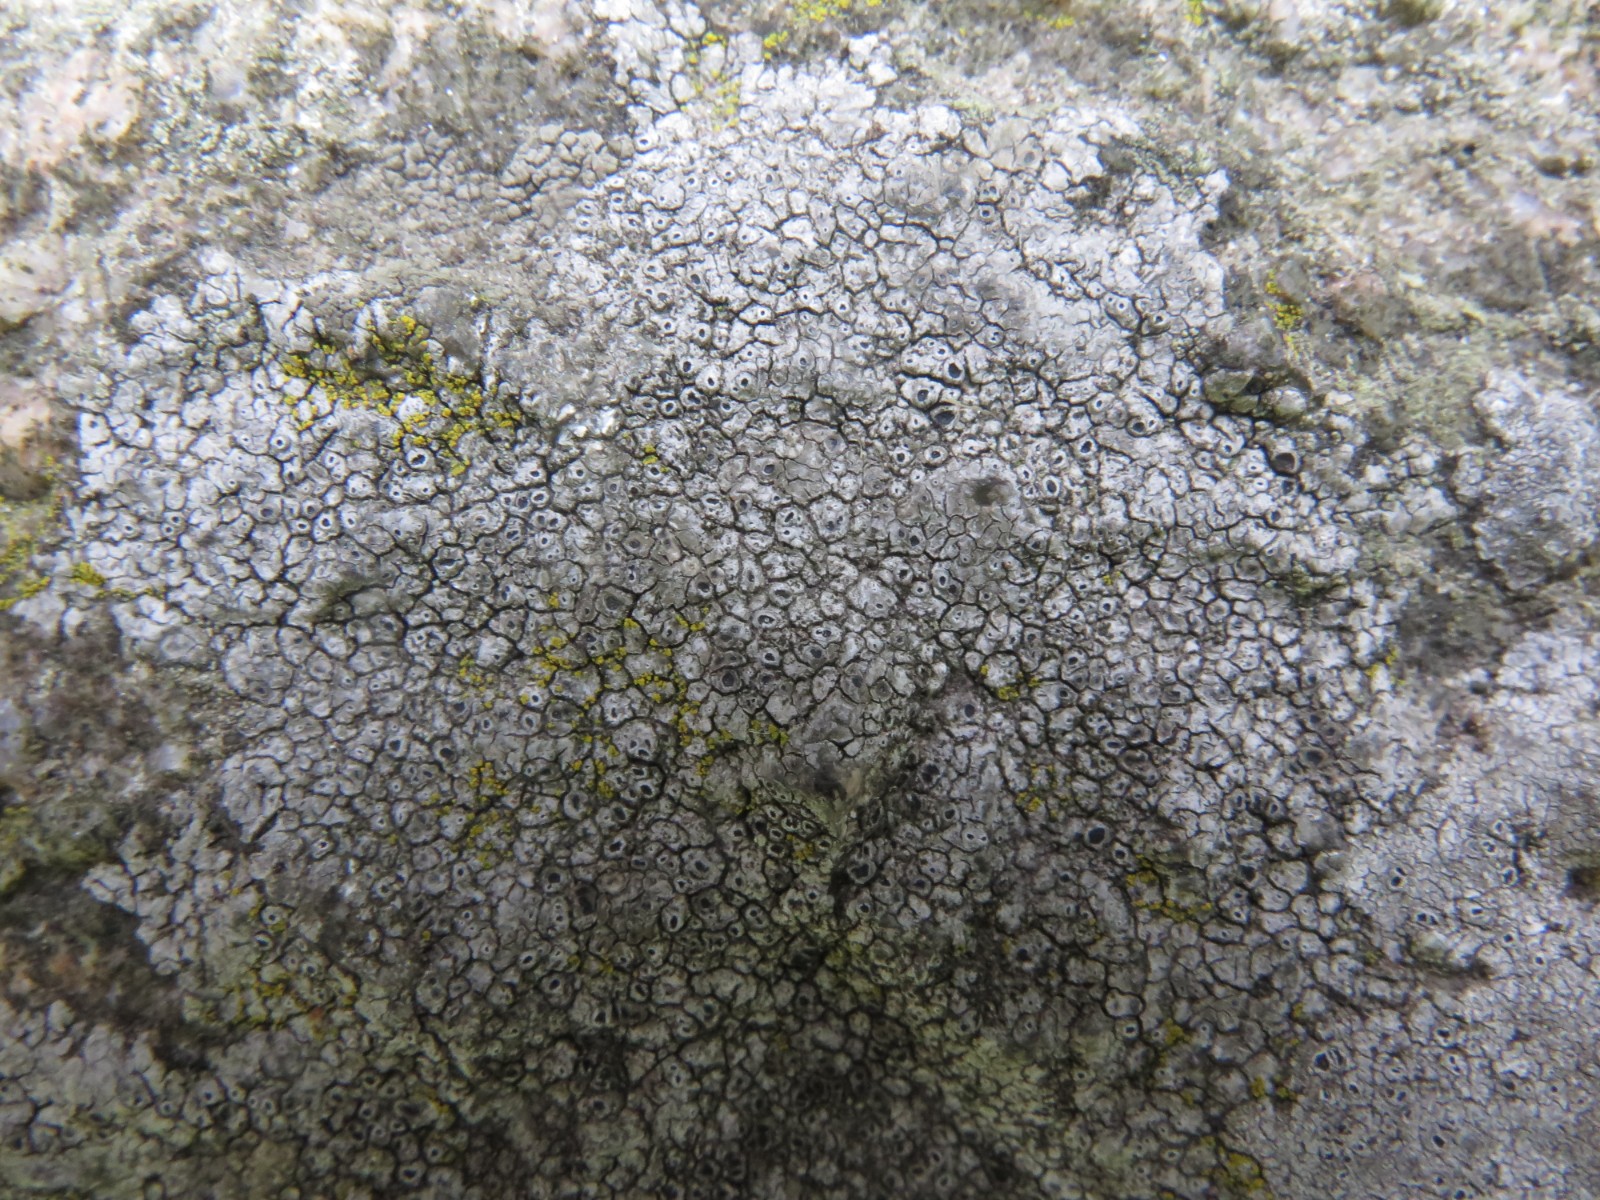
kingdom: Fungi
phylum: Ascomycota
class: Lecanoromycetes
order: Pertusariales
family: Megasporaceae
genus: Aspicilia
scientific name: Aspicilia cinerea
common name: grå hulskivelav
